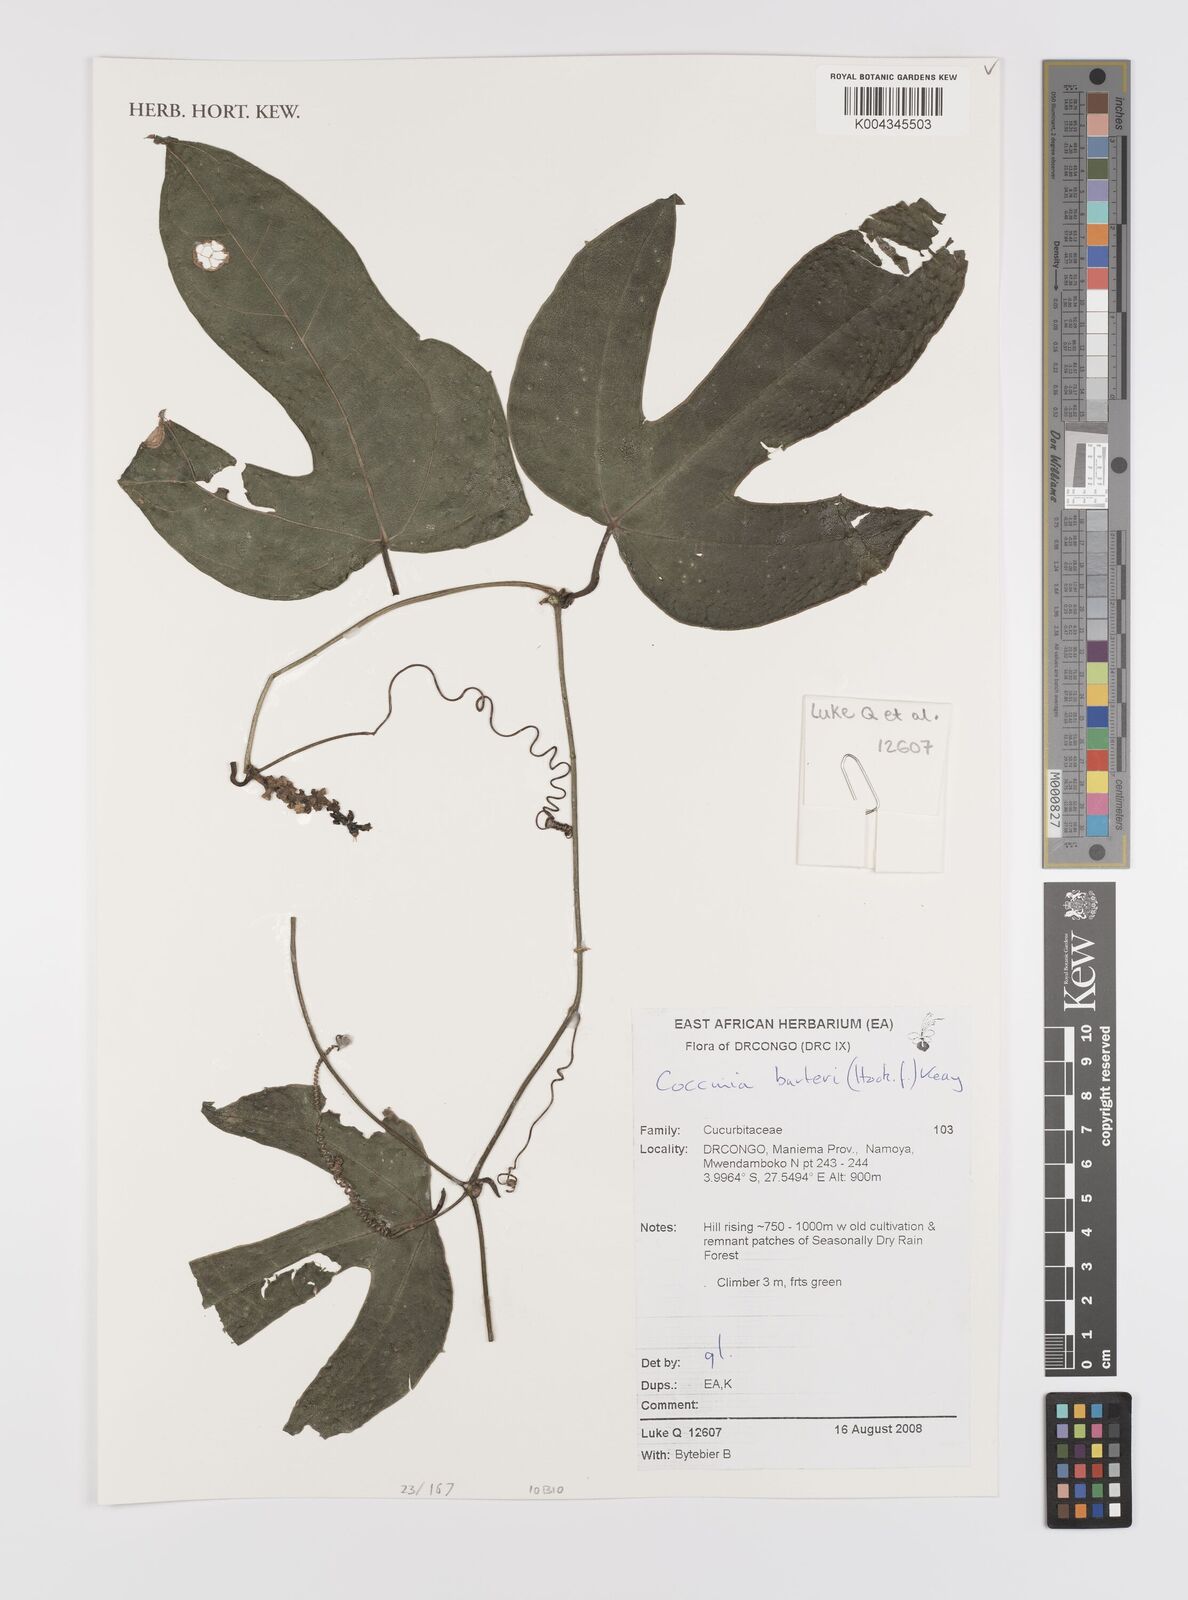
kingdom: Plantae
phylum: Tracheophyta
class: Magnoliopsida
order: Cucurbitales
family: Cucurbitaceae
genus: Coccinia
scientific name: Coccinia barteri
